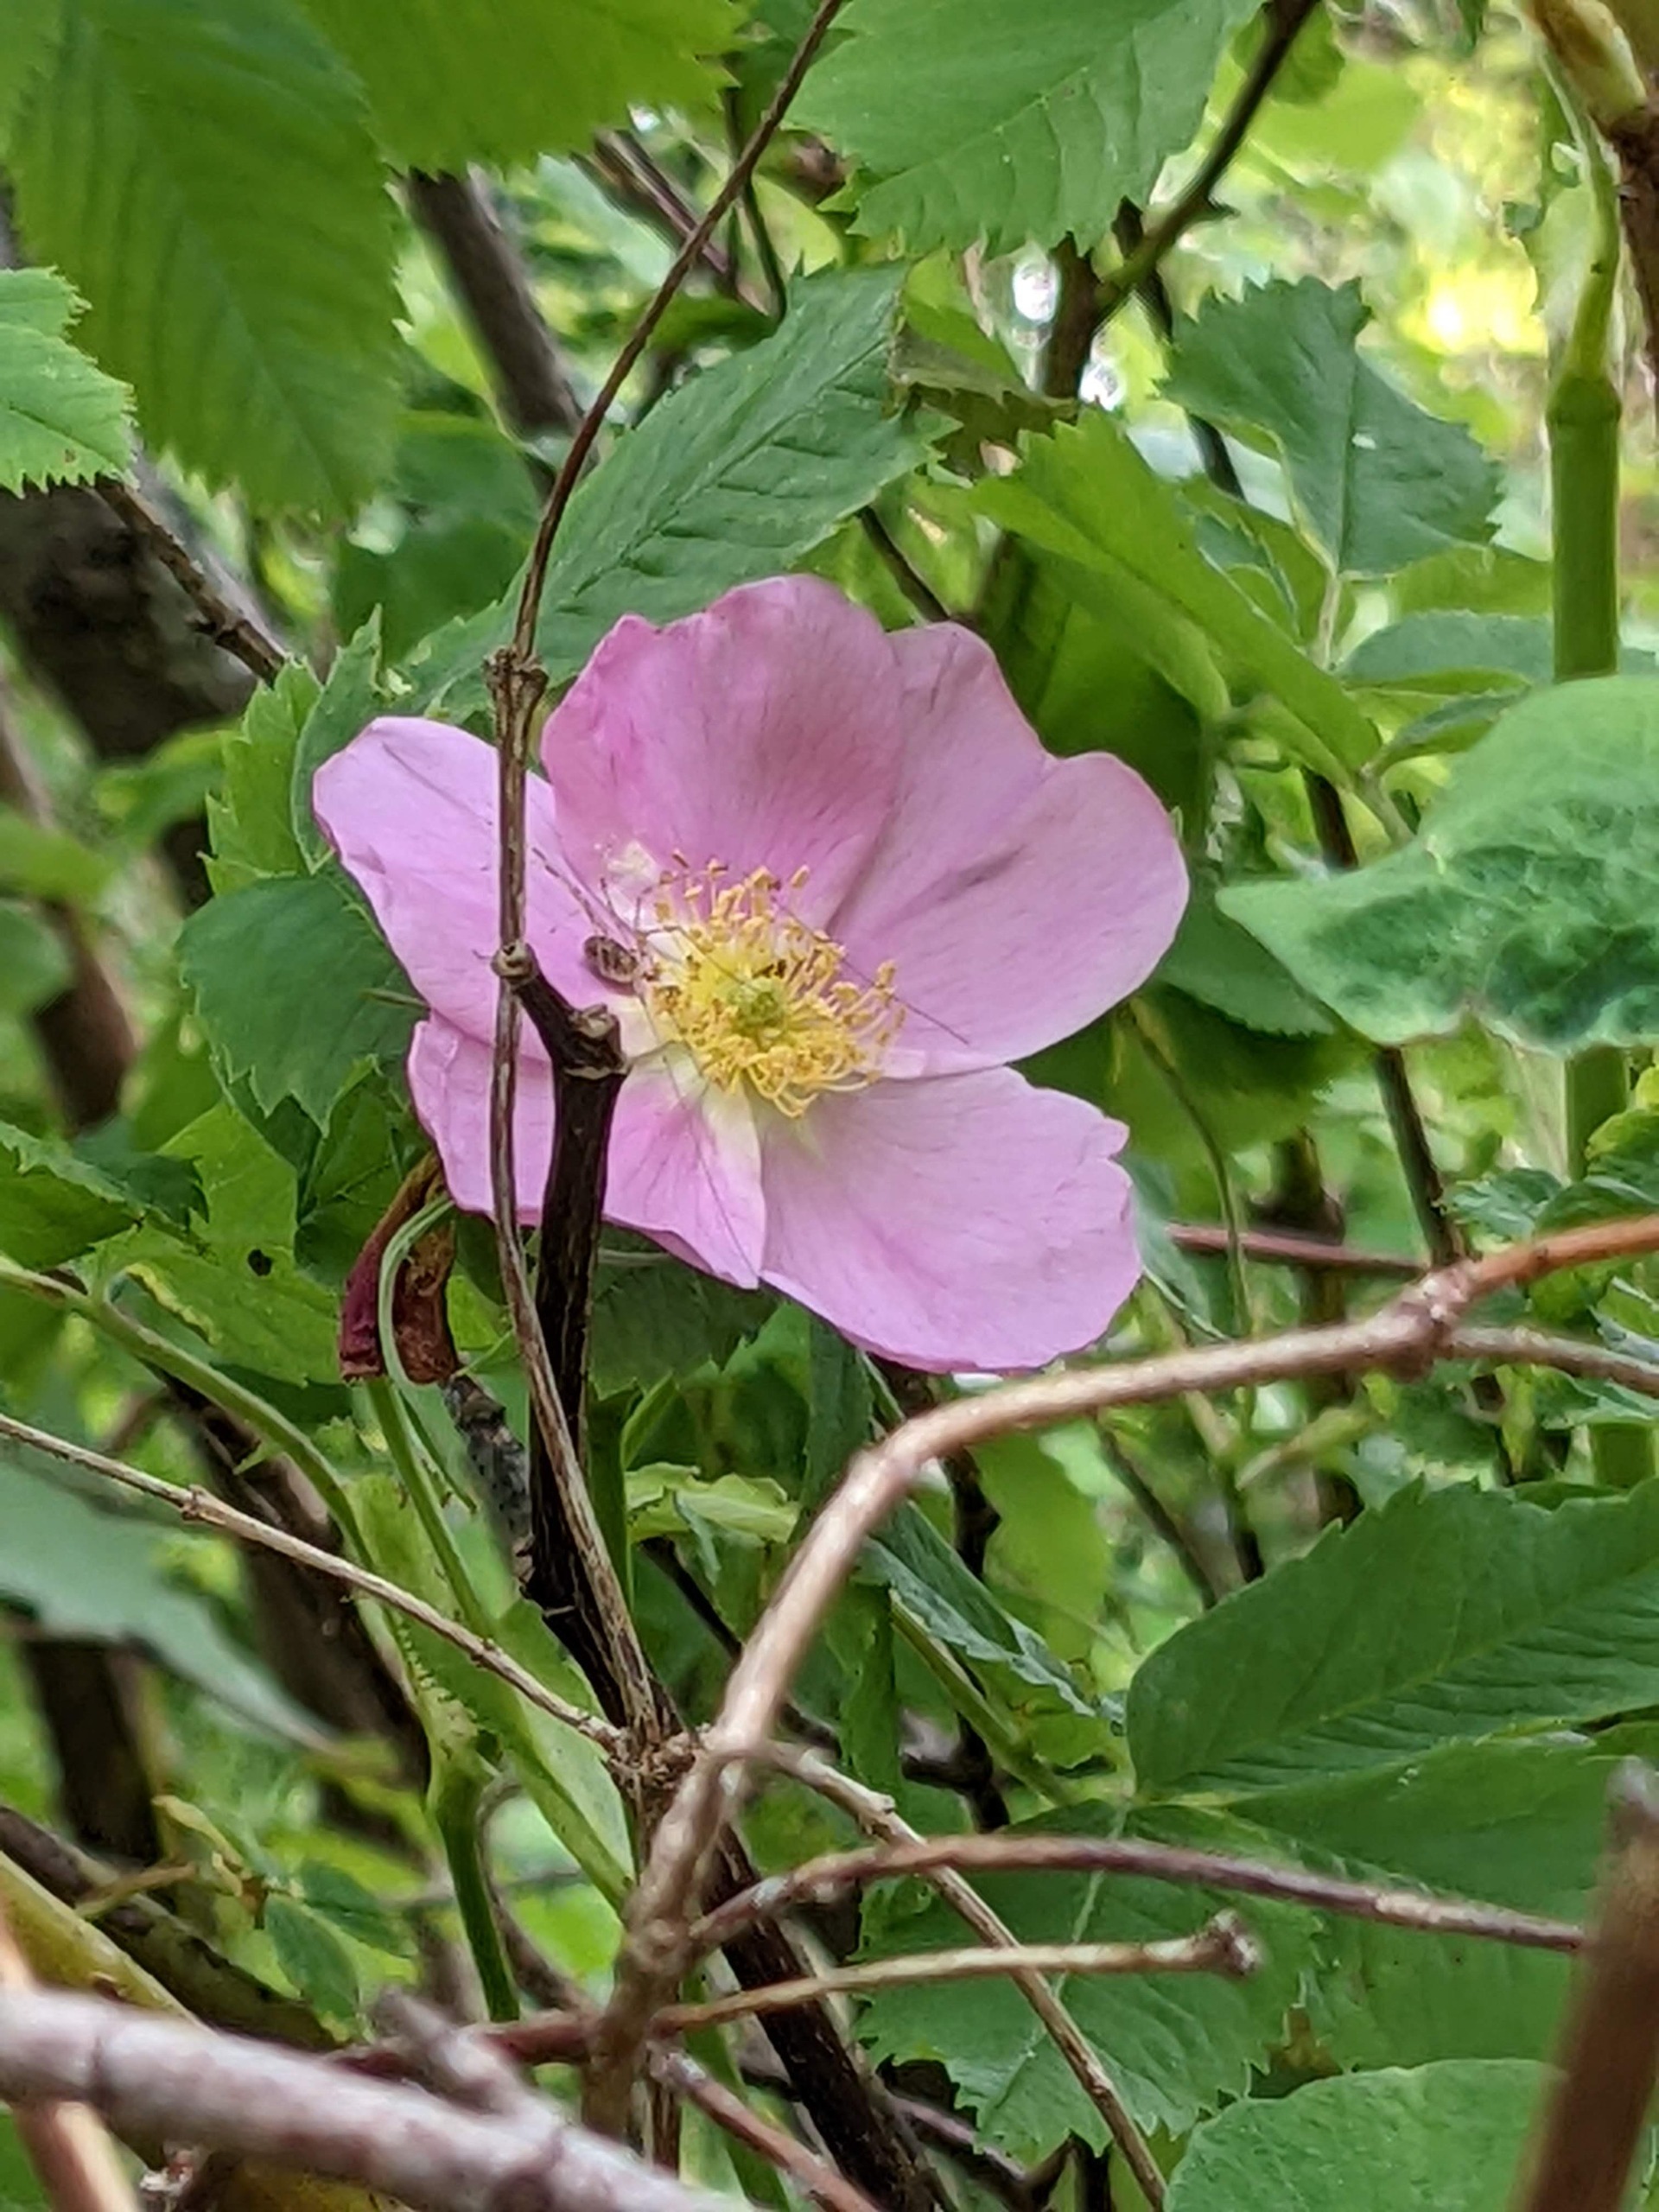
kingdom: Plantae
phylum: Tracheophyta
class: Magnoliopsida
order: Rosales
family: Rosaceae
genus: Rosa
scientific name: Rosa blanda
